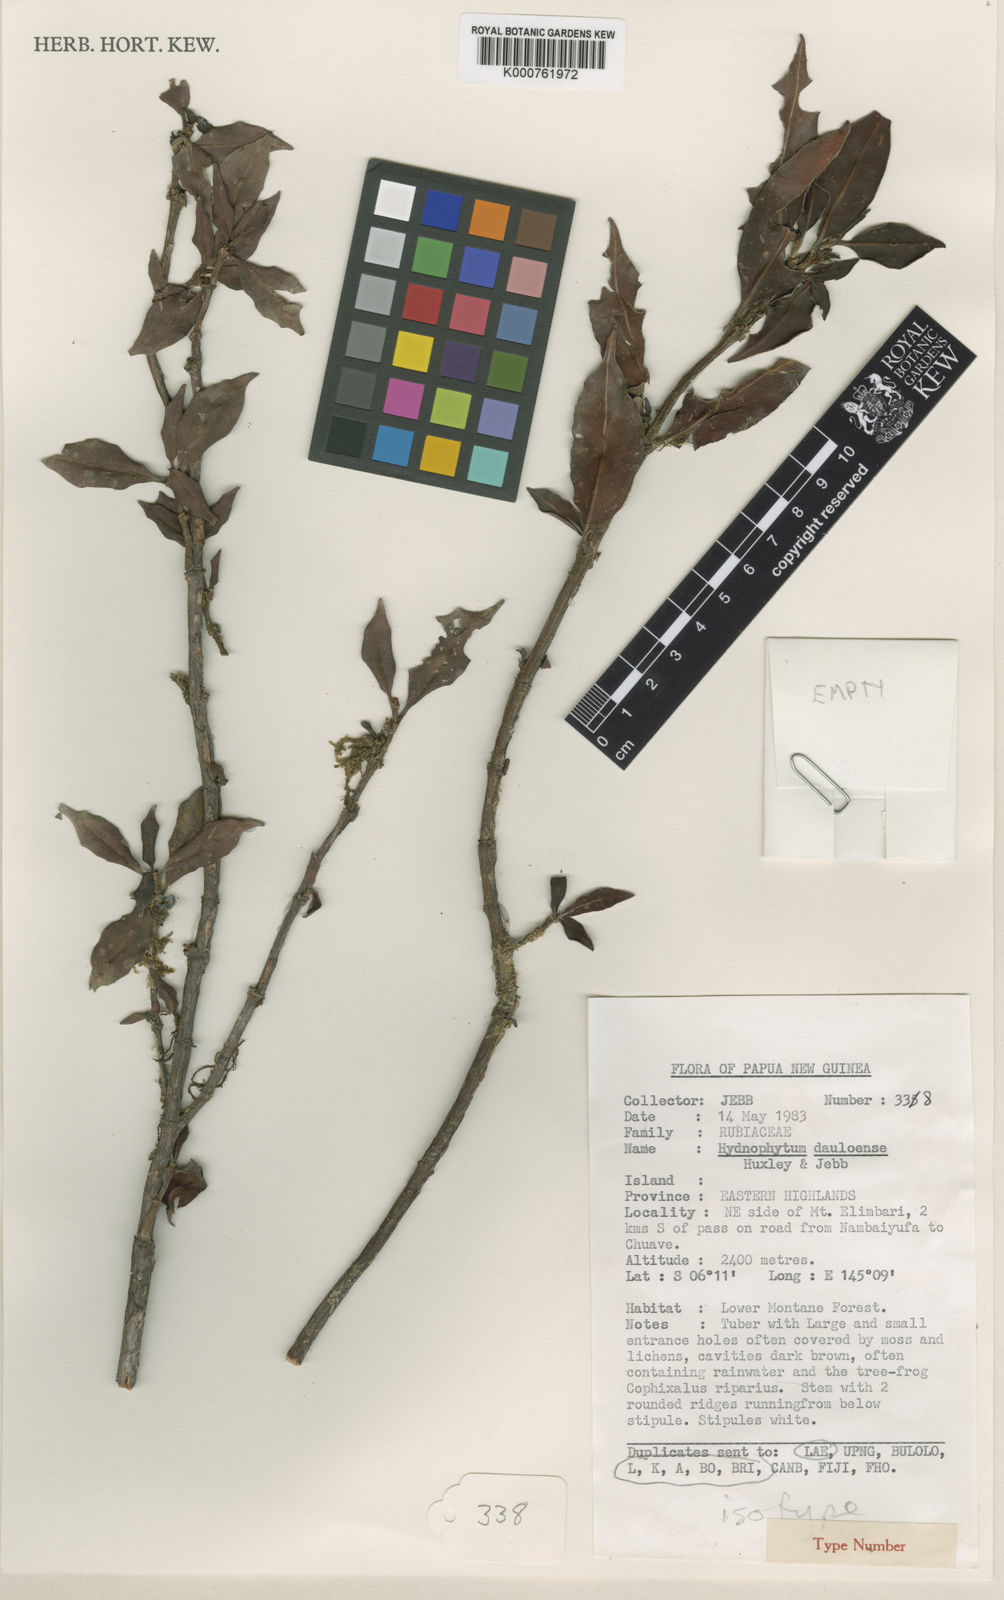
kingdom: Plantae
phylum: Tracheophyta
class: Magnoliopsida
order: Gentianales
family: Rubiaceae
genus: Hydnophytum
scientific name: Hydnophytum
